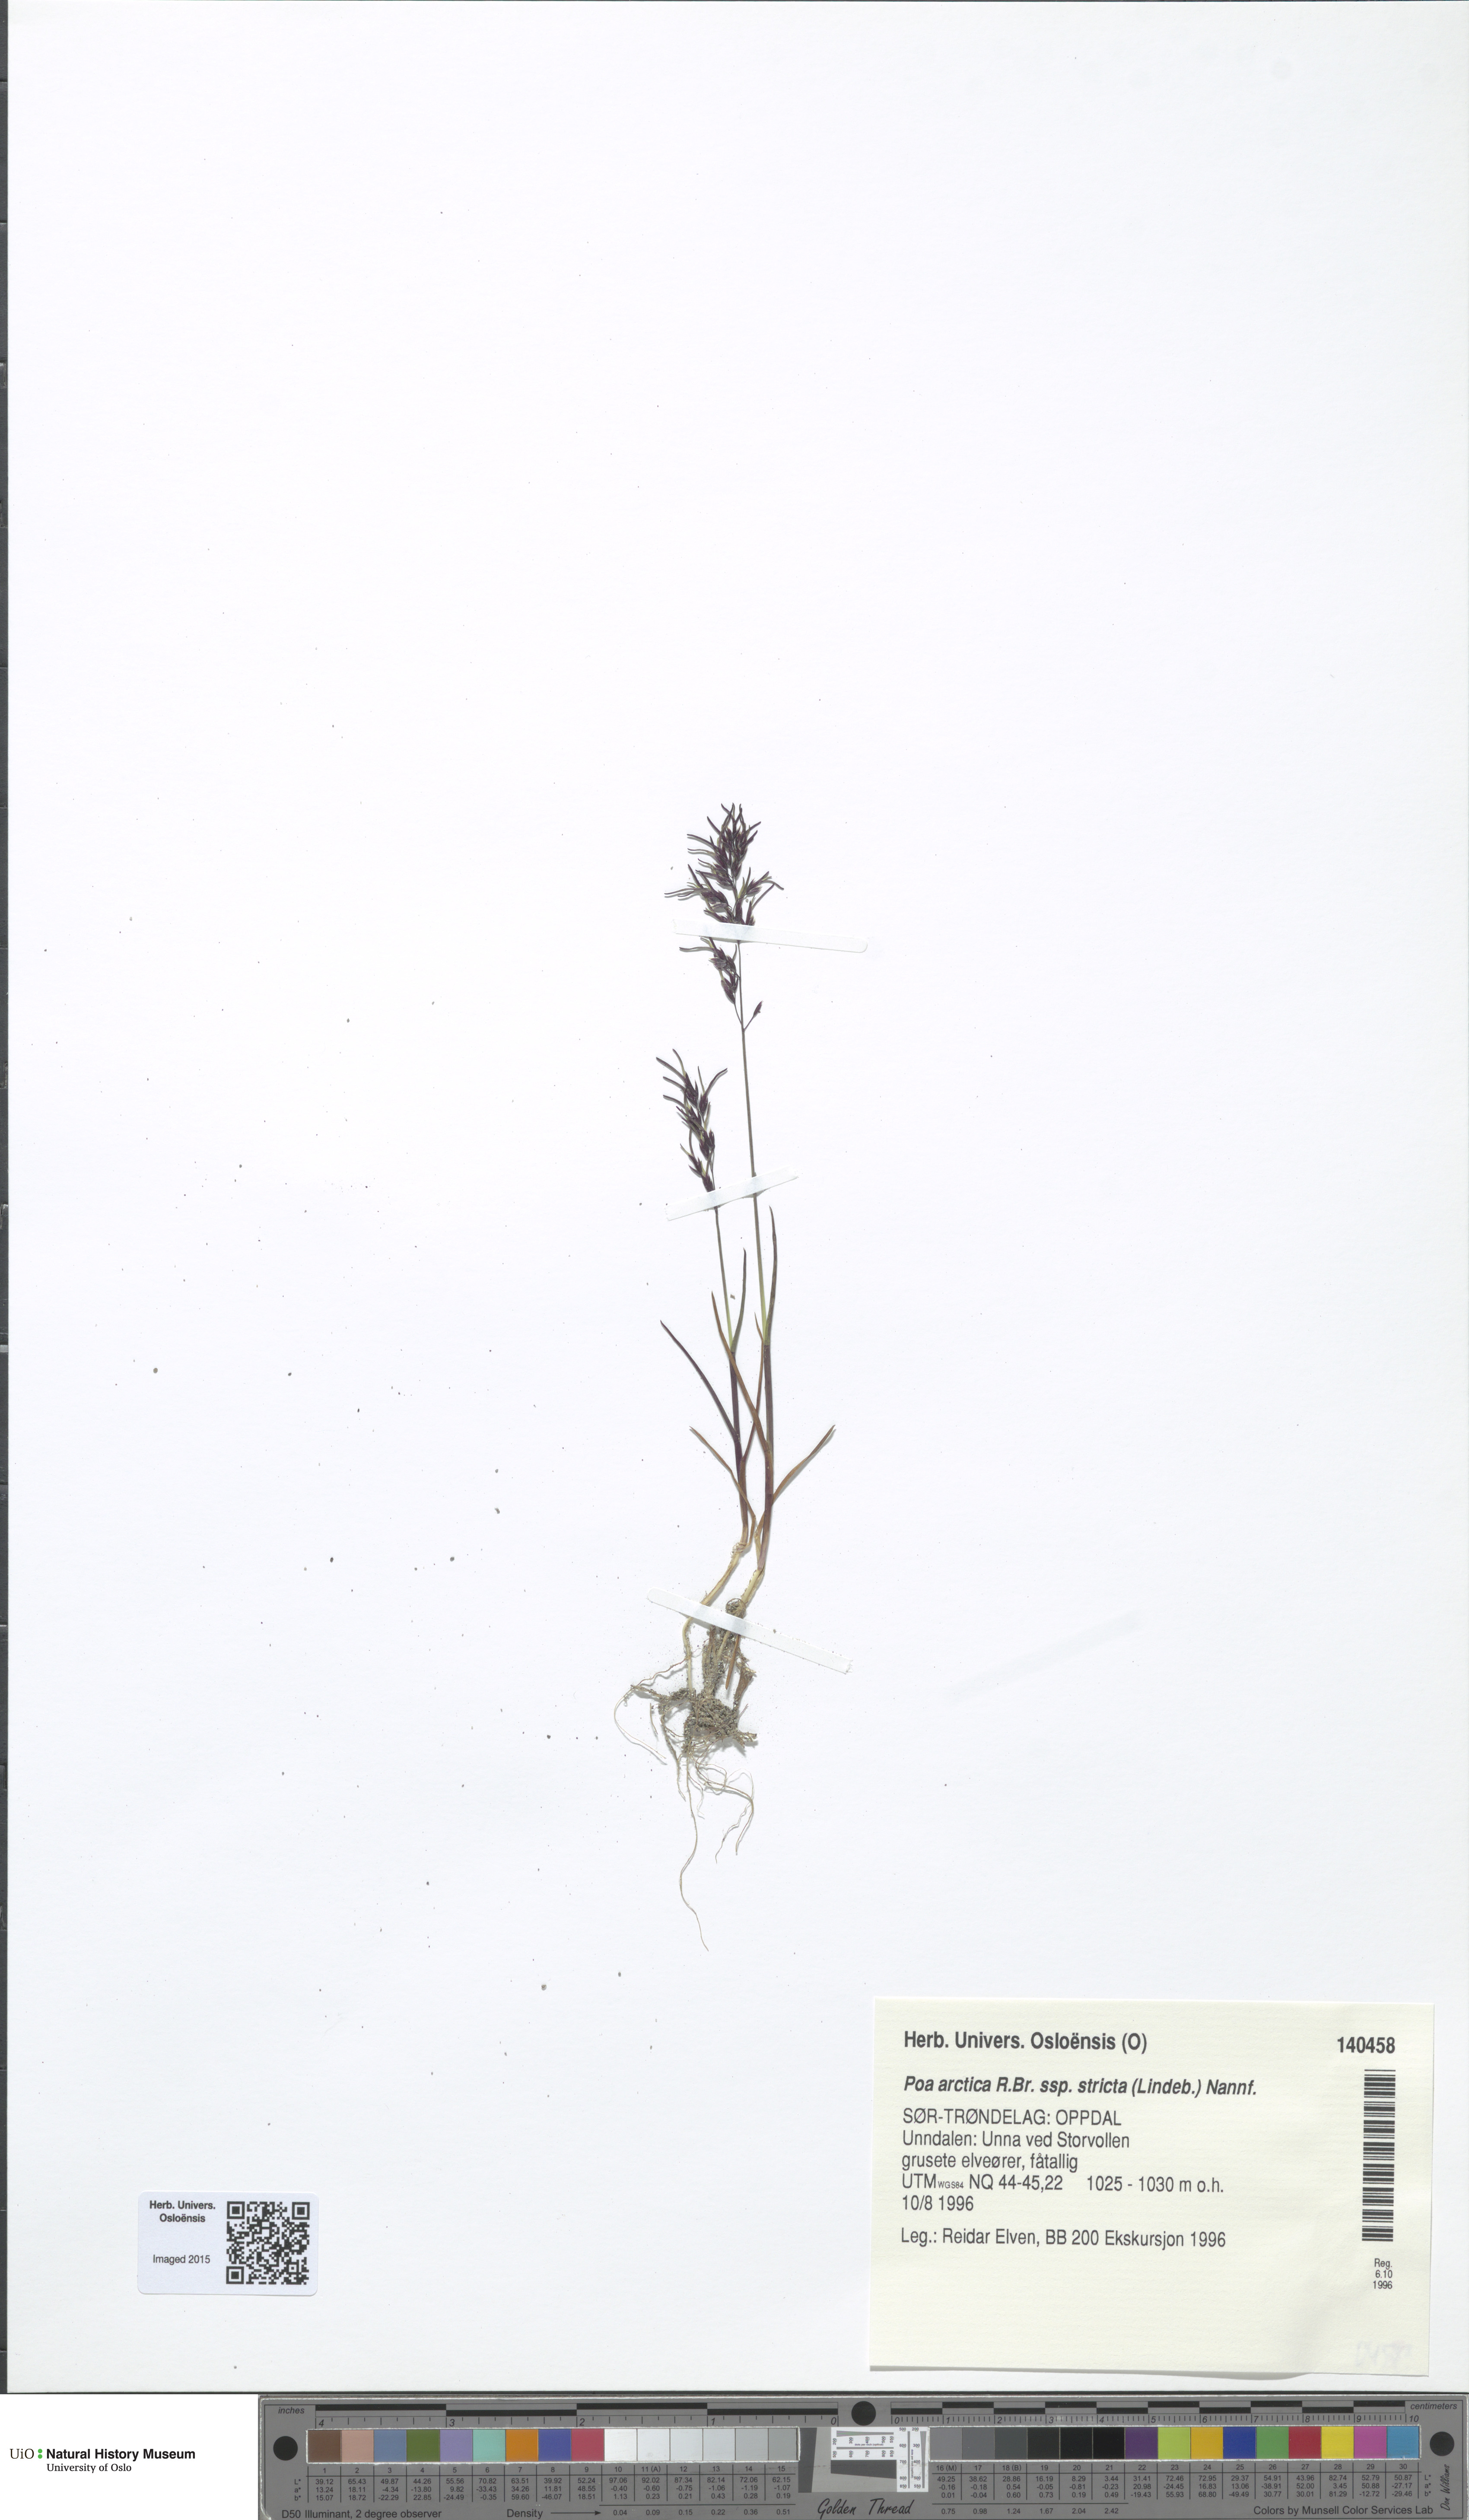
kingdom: Plantae
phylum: Tracheophyta
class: Liliopsida
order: Poales
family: Poaceae
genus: Poa
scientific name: Poa lindebergii
